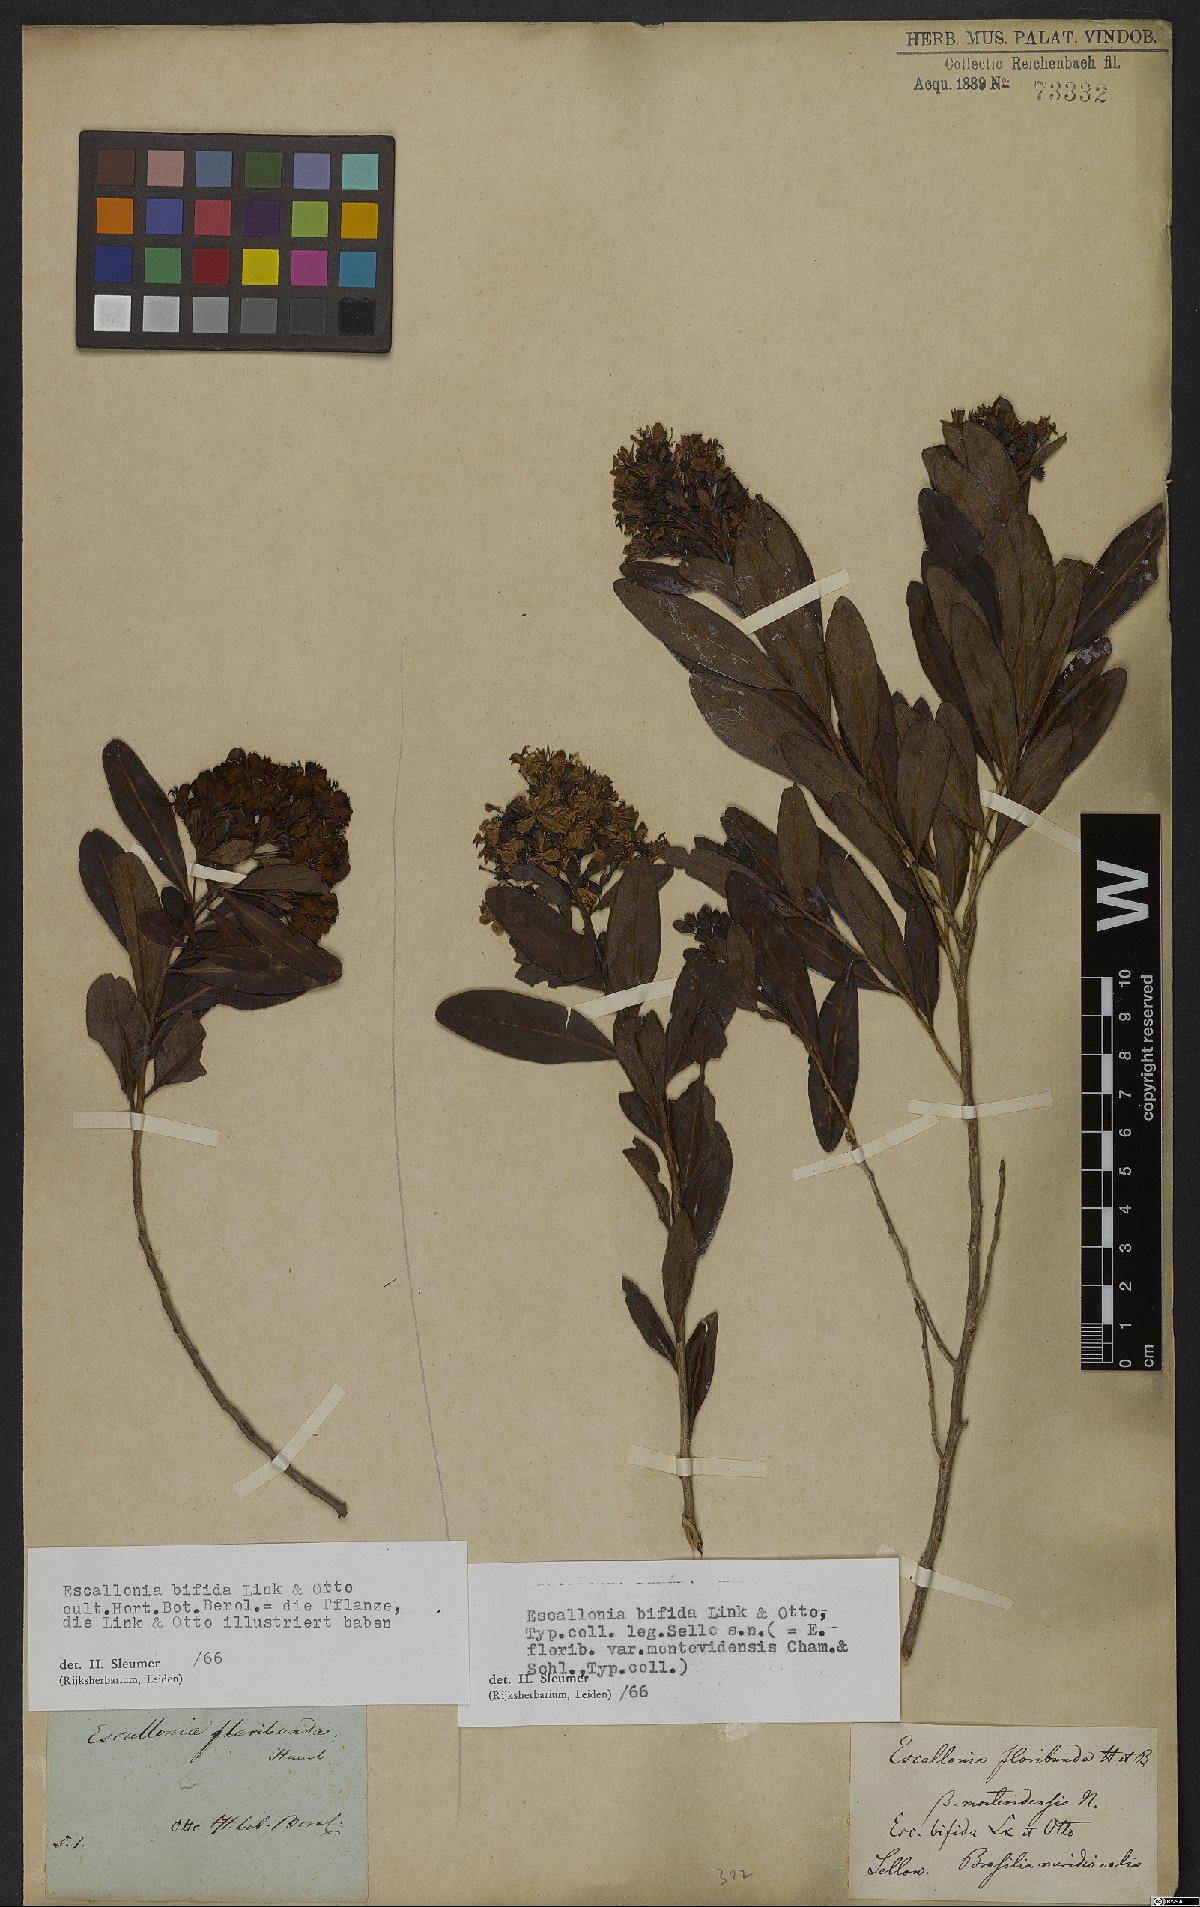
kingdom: Plantae
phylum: Tracheophyta
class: Magnoliopsida
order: Escalloniales
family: Escalloniaceae
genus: Escallonia
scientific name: Escallonia bifida
